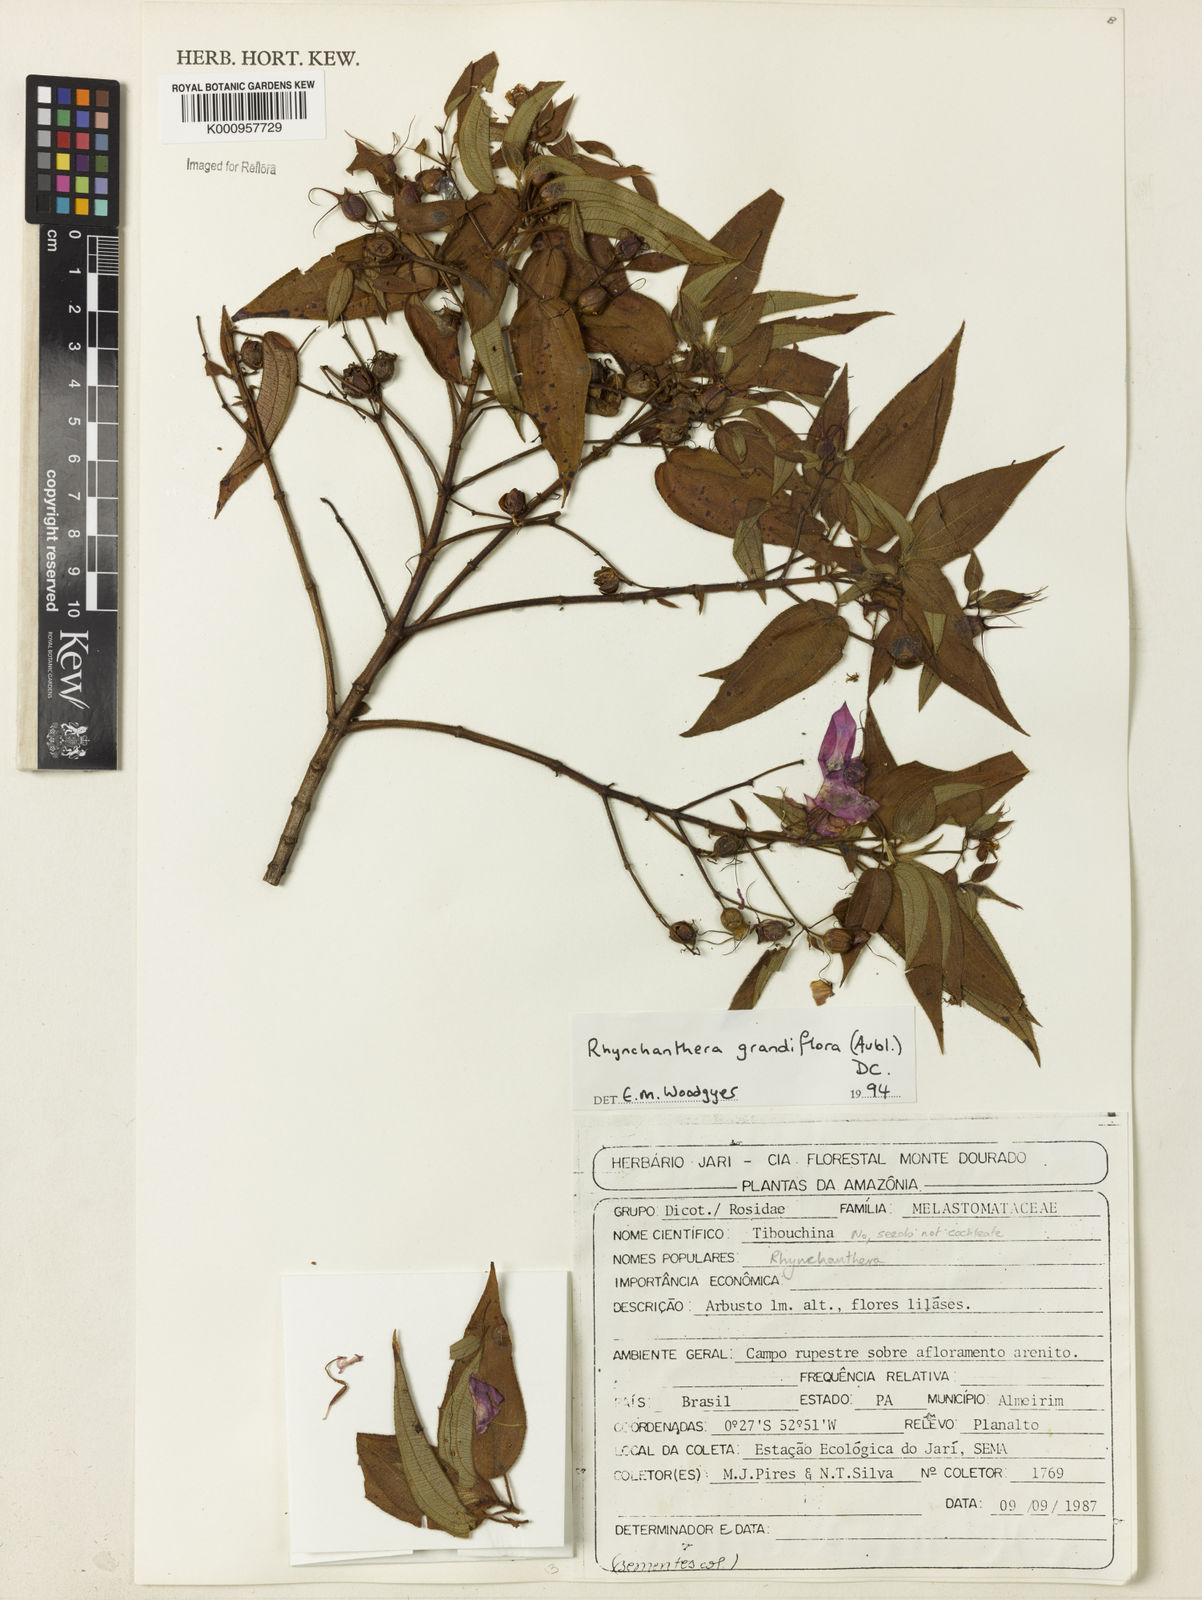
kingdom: Plantae
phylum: Tracheophyta
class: Magnoliopsida
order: Myrtales
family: Melastomataceae
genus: Rhynchanthera
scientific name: Rhynchanthera grandiflora
